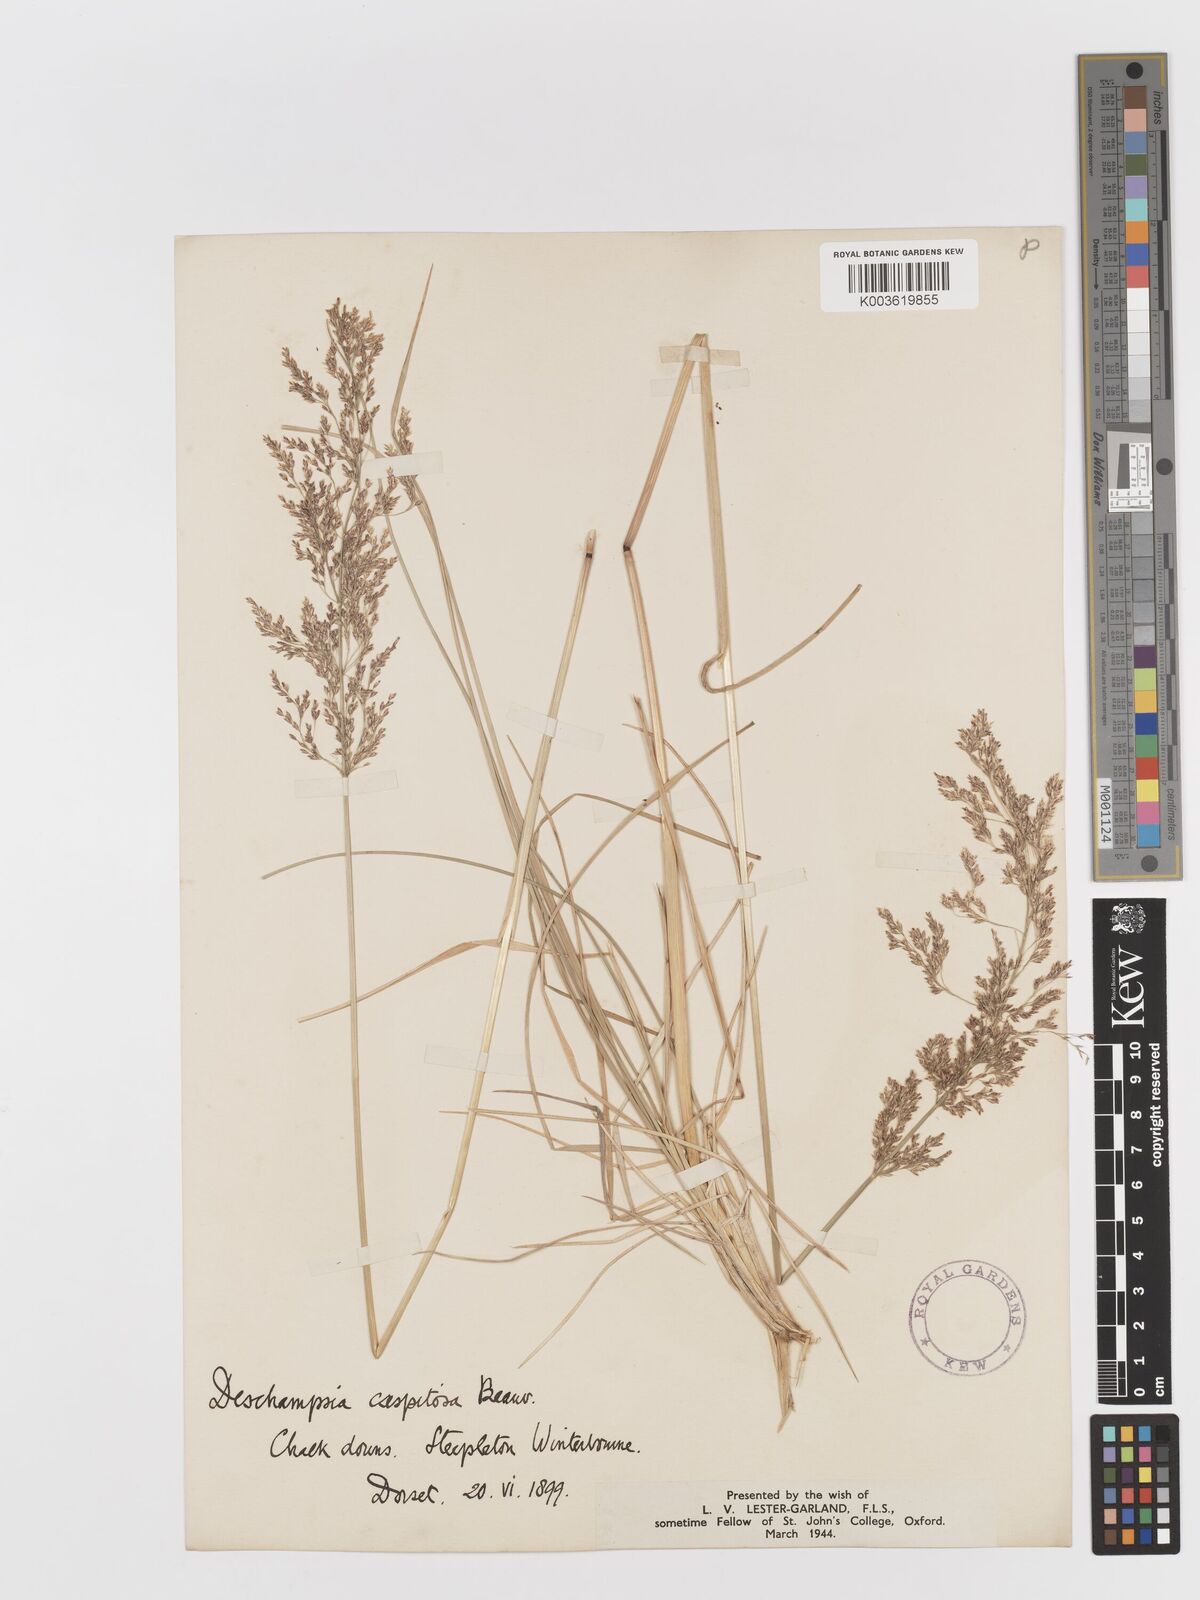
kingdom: Plantae
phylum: Tracheophyta
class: Liliopsida
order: Poales
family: Poaceae
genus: Deschampsia
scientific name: Deschampsia cespitosa
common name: Tufted hair-grass
